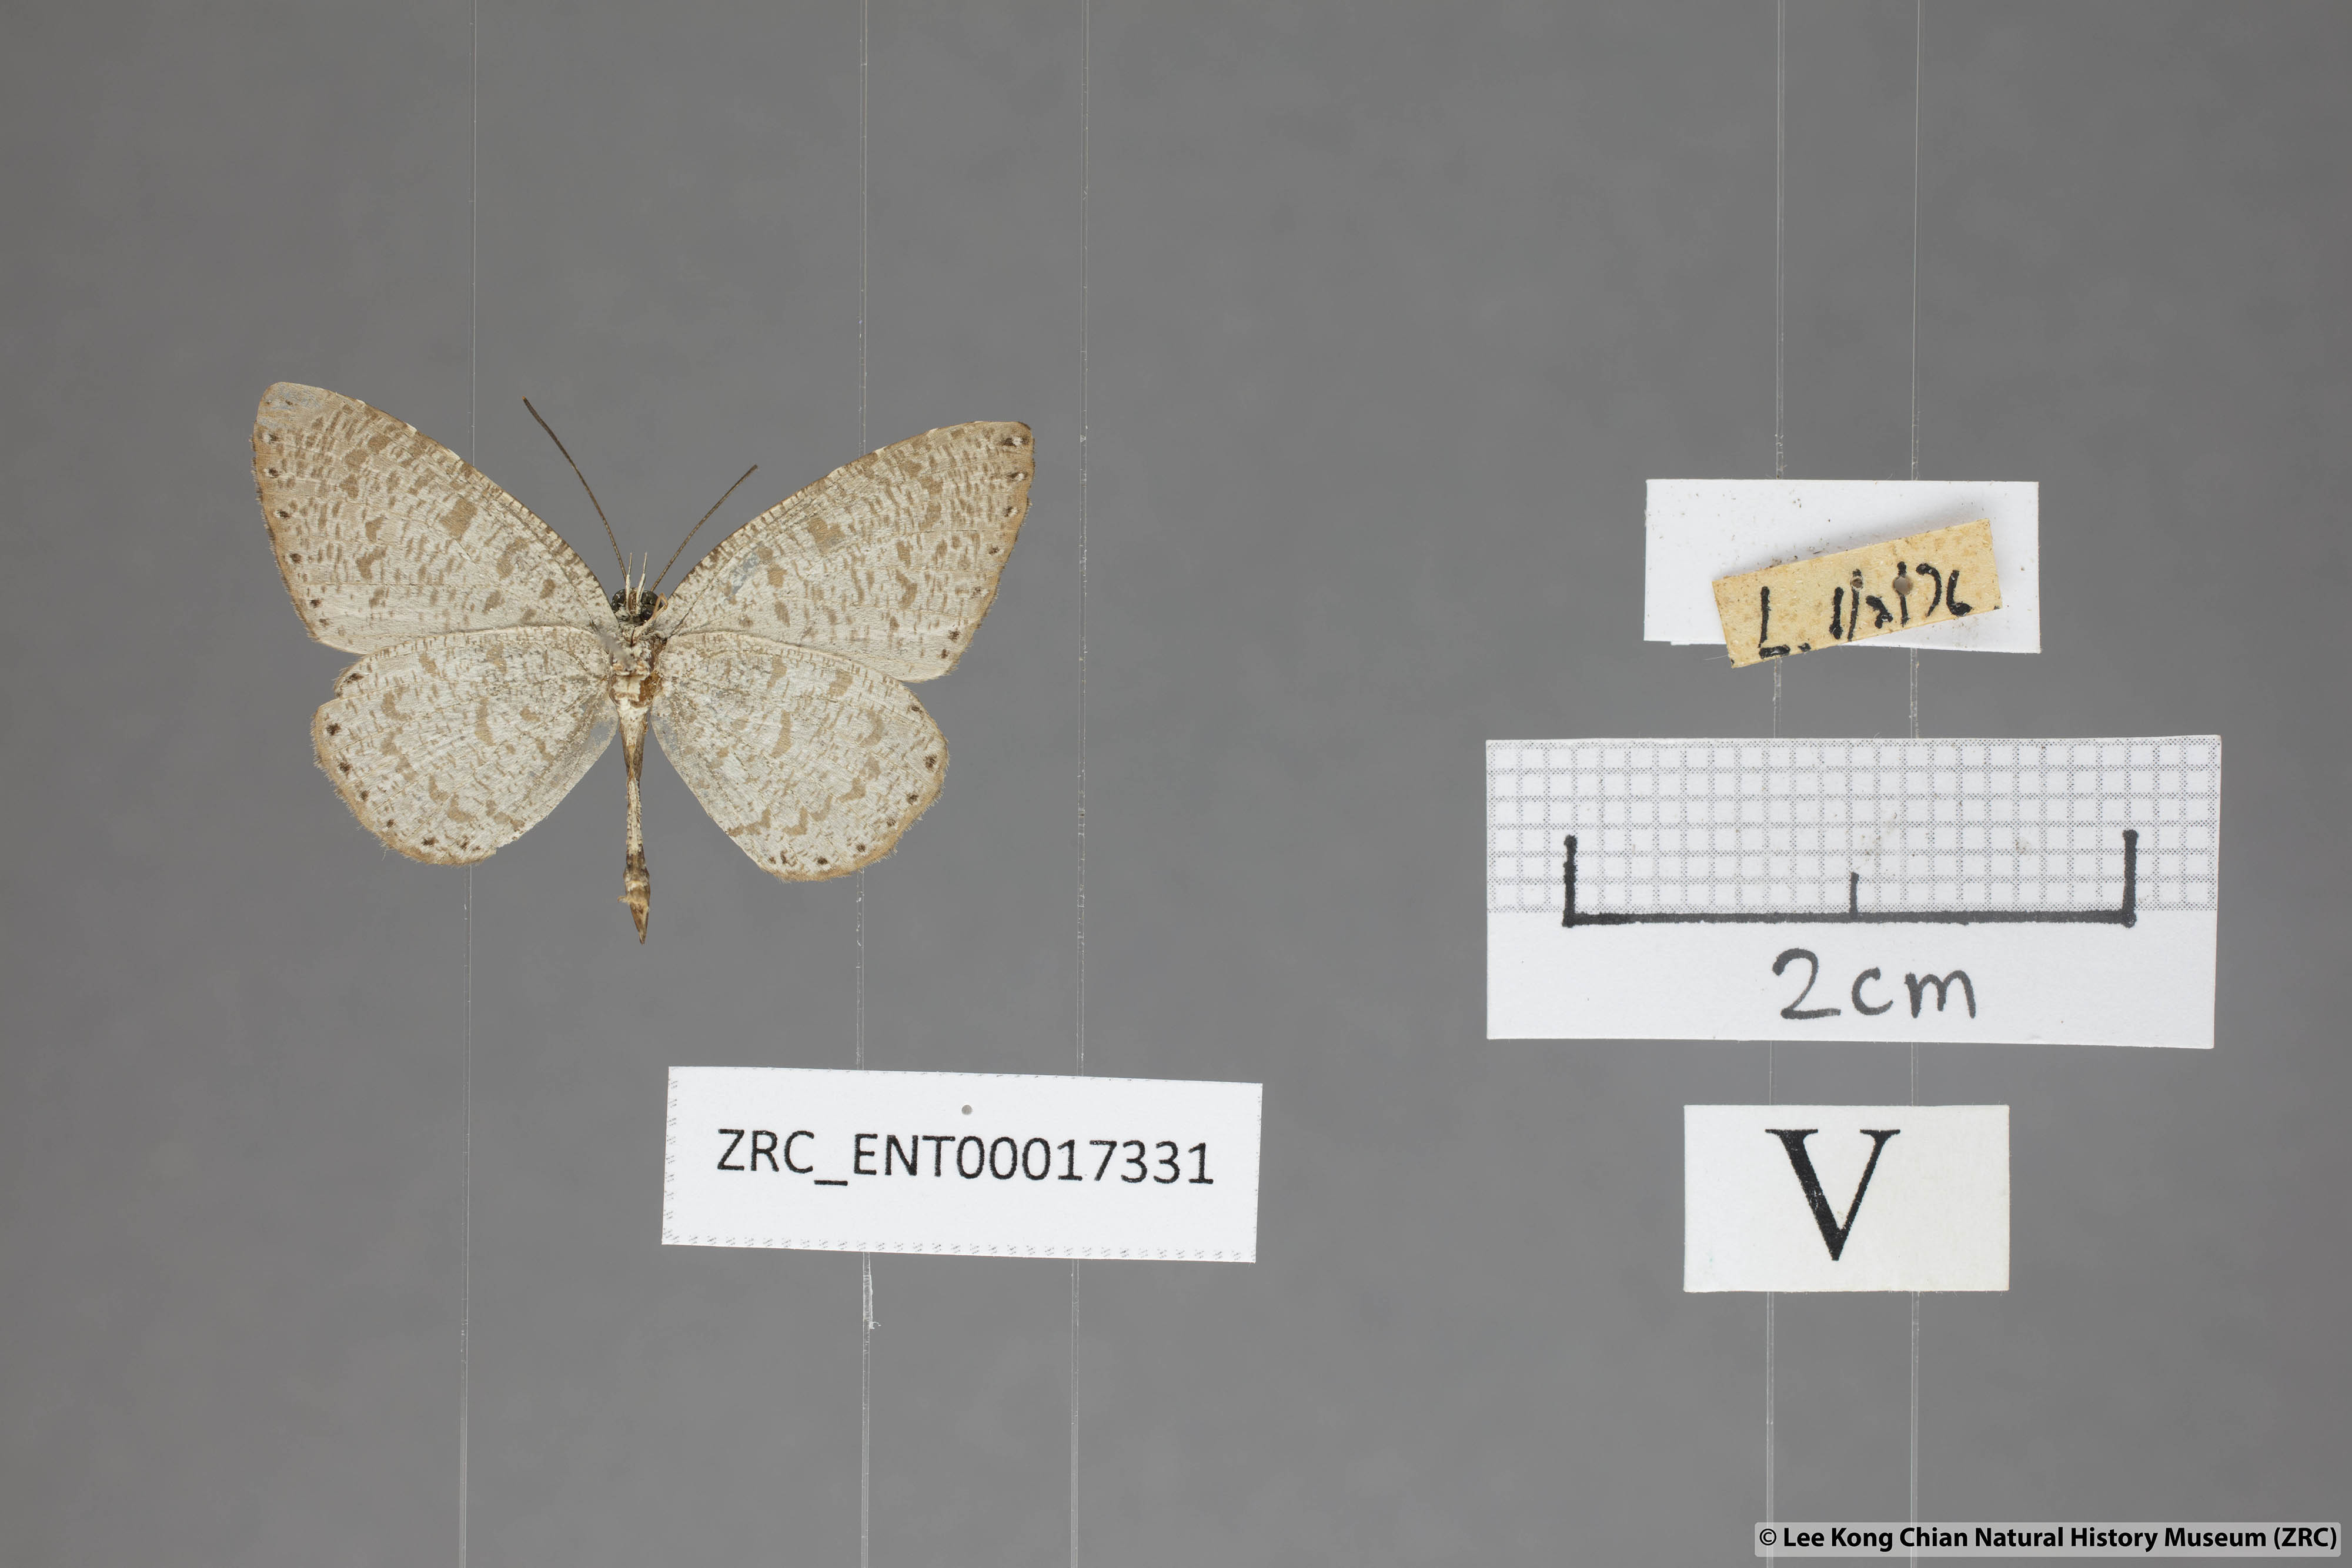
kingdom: Animalia
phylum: Arthropoda
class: Insecta
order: Lepidoptera
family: Lycaenidae
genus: Allotinus
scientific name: Allotinus sarastes
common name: Peninsular darkie
